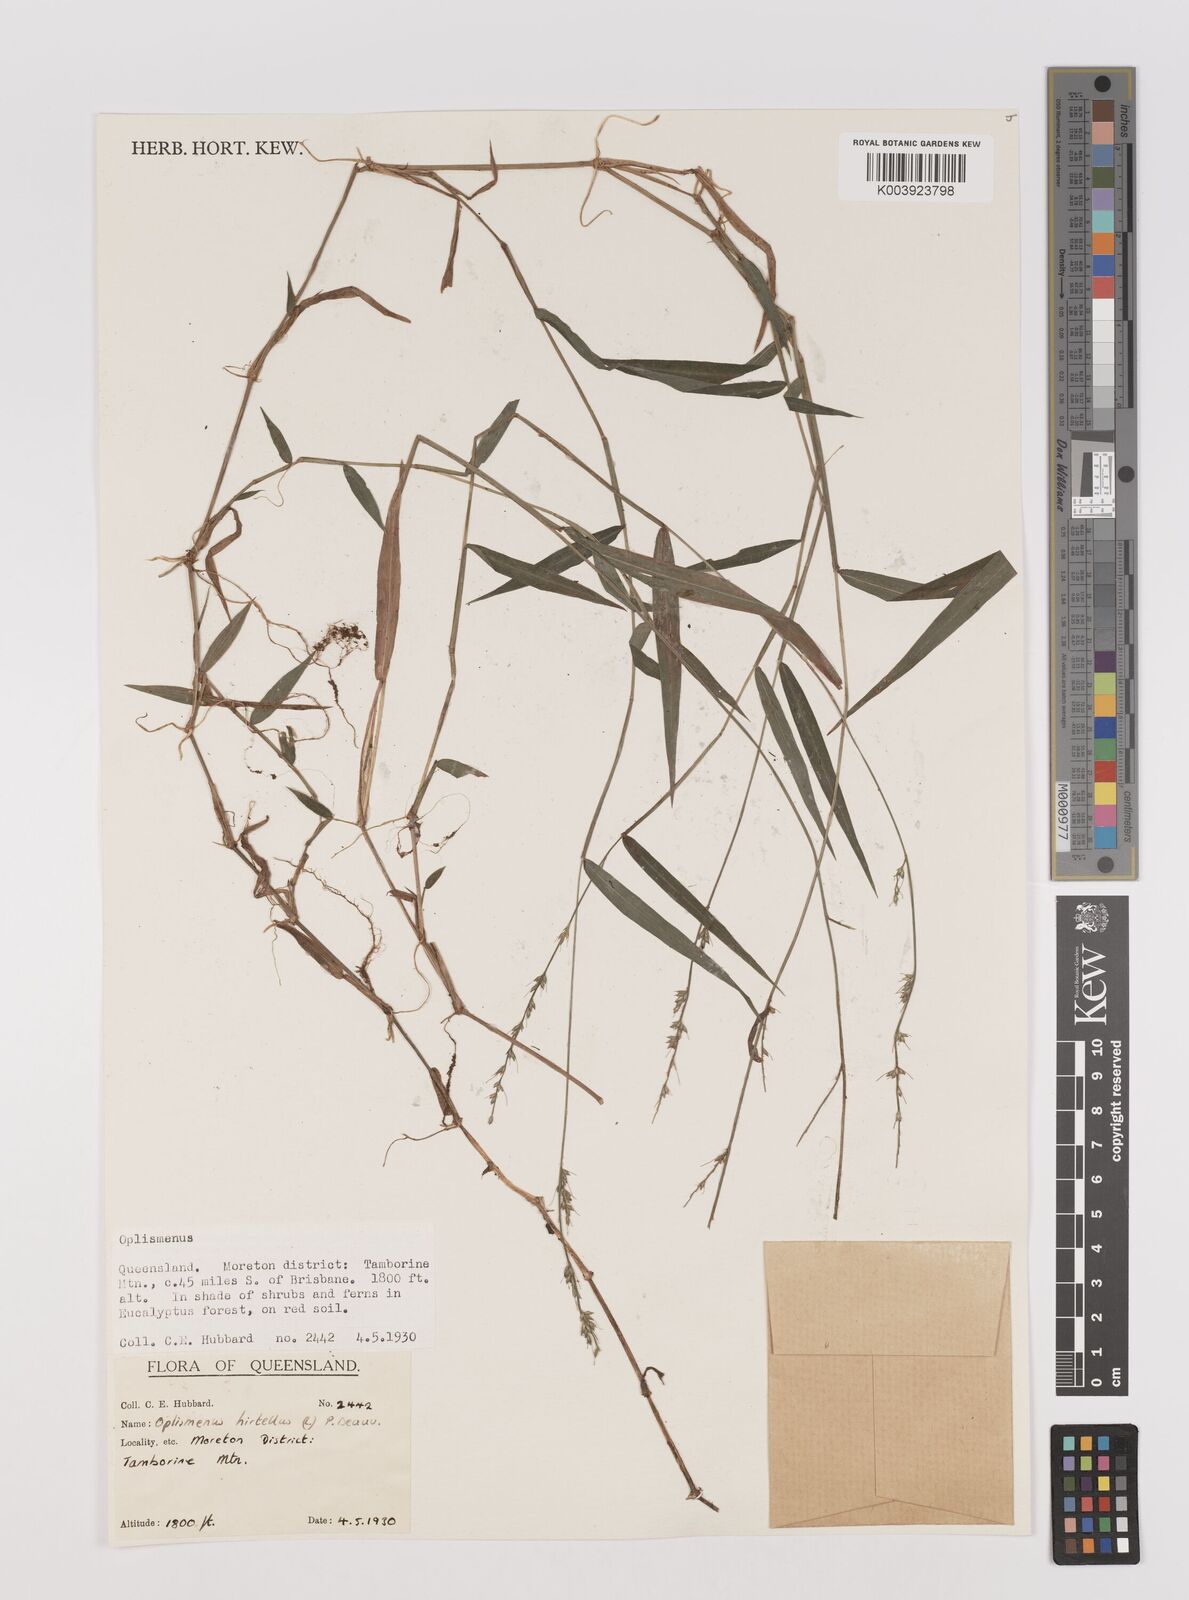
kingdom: Plantae
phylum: Tracheophyta
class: Liliopsida
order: Poales
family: Poaceae
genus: Oplismenus
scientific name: Oplismenus hirtellus
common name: Basketgrass
